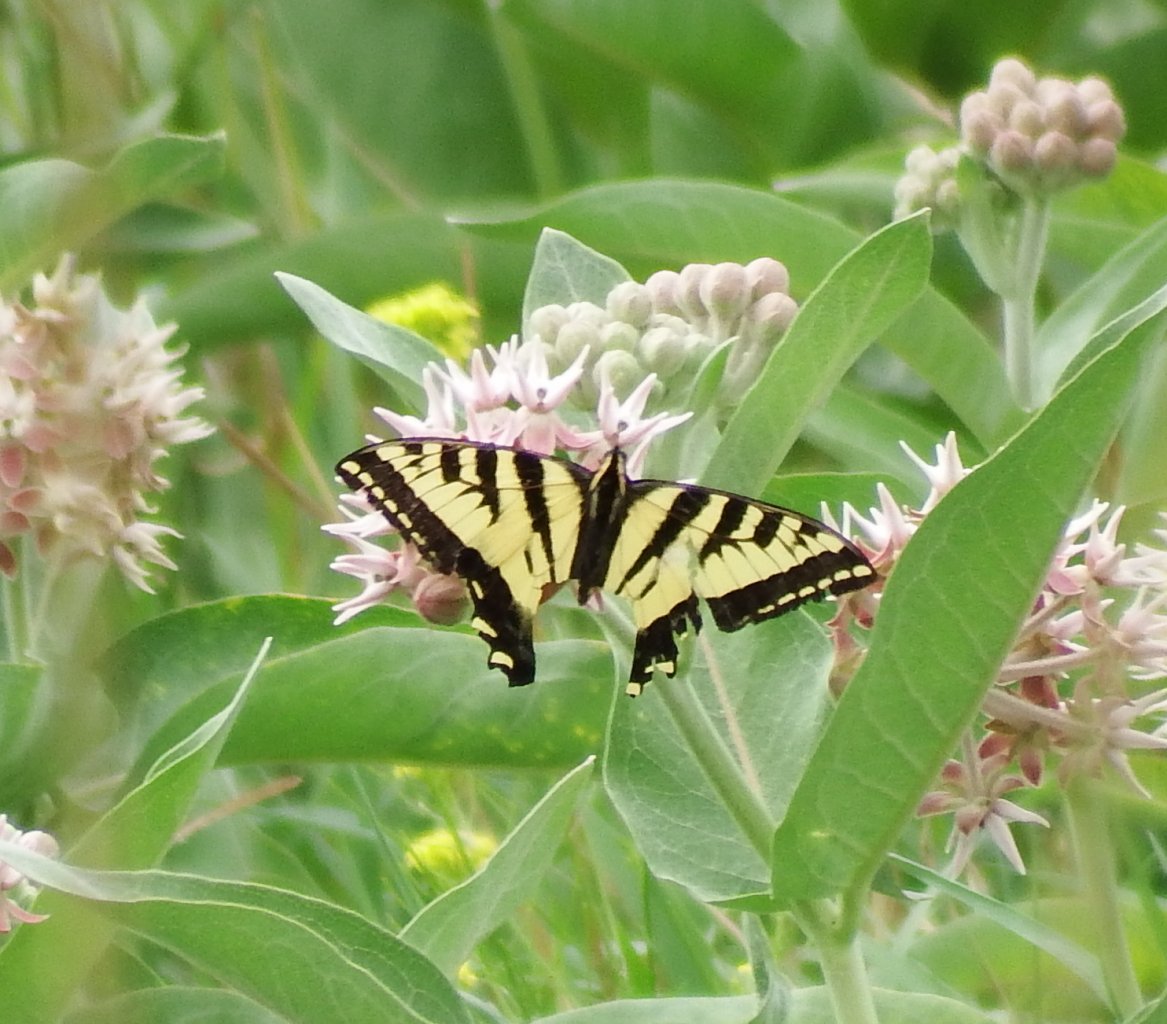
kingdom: Animalia
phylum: Arthropoda
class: Insecta
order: Lepidoptera
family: Papilionidae
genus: Pterourus
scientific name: Pterourus rutulus
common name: Western Tiger Swallowtail
